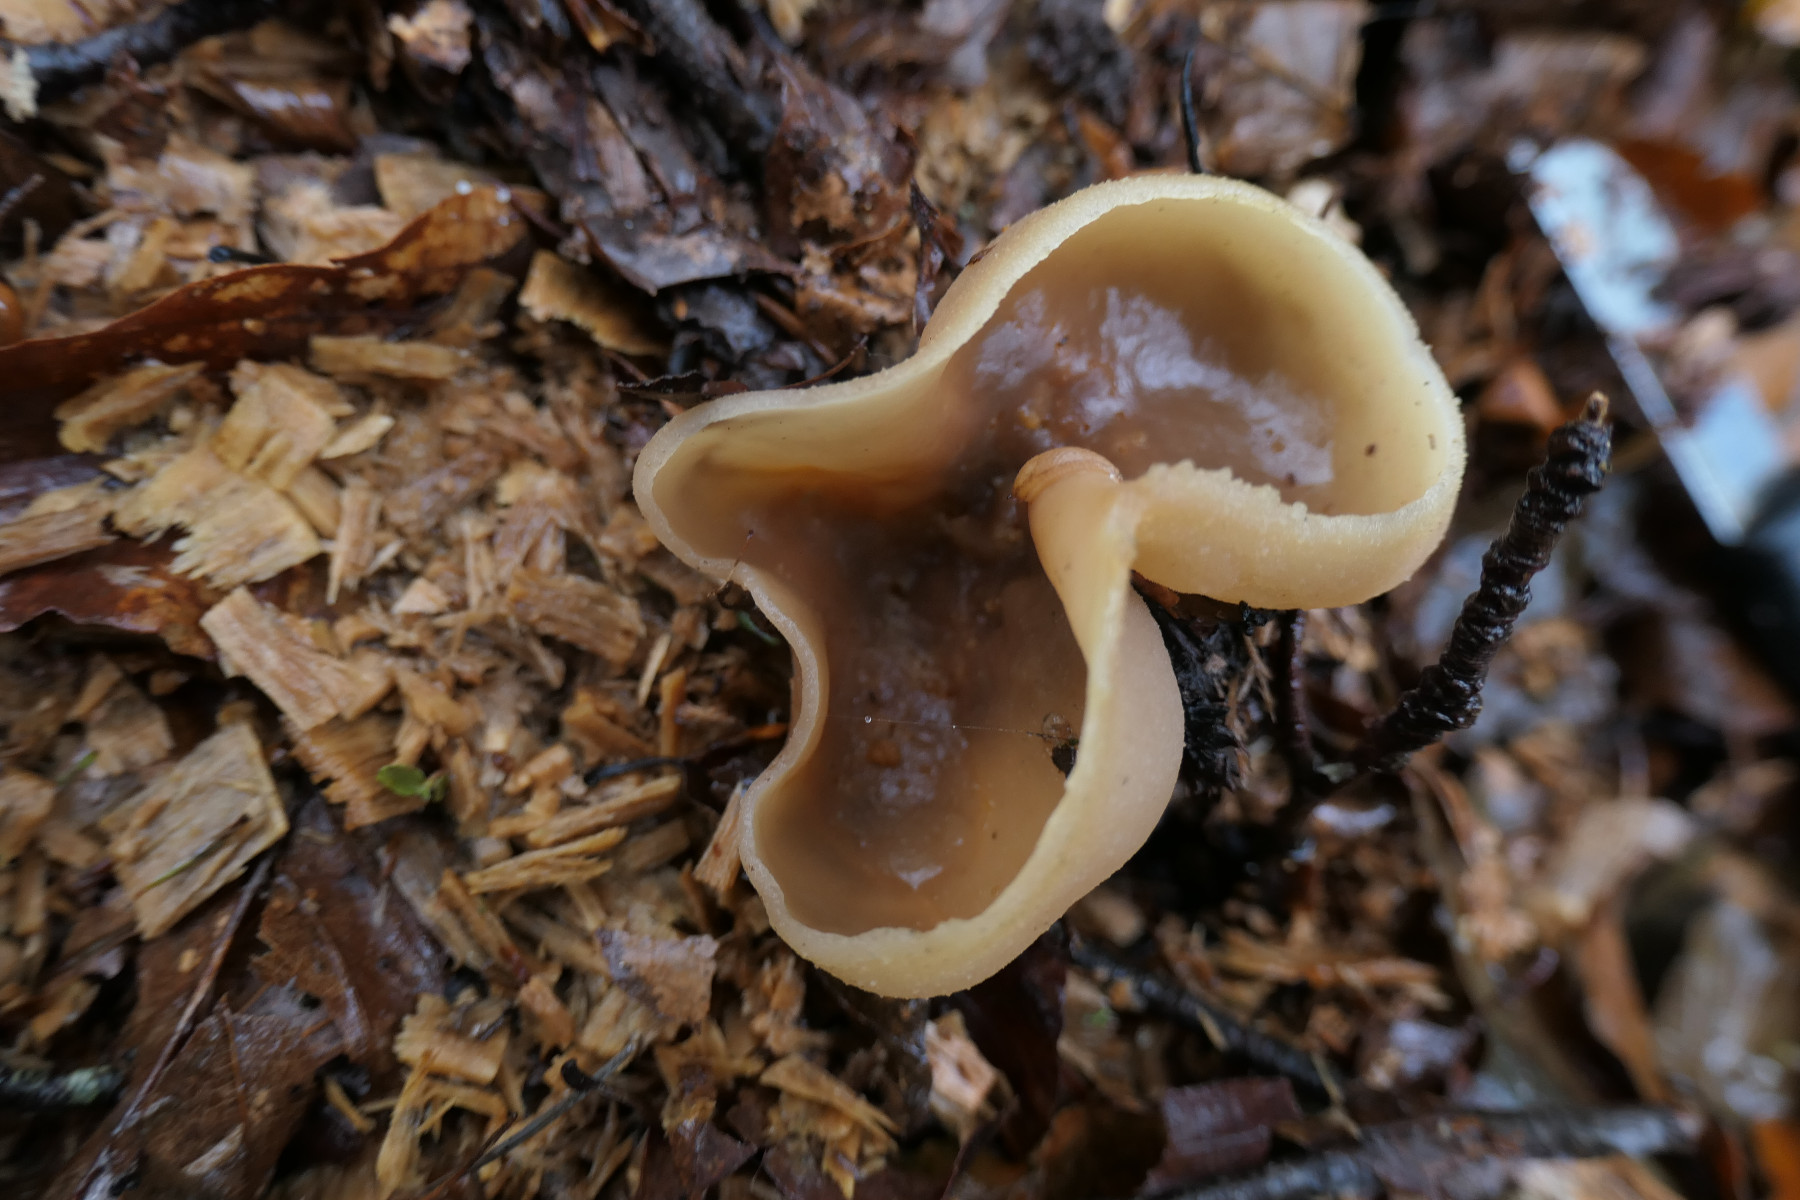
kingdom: Fungi
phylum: Ascomycota
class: Pezizomycetes
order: Pezizales
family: Pezizaceae
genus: Peziza
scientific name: Peziza arvernensis
